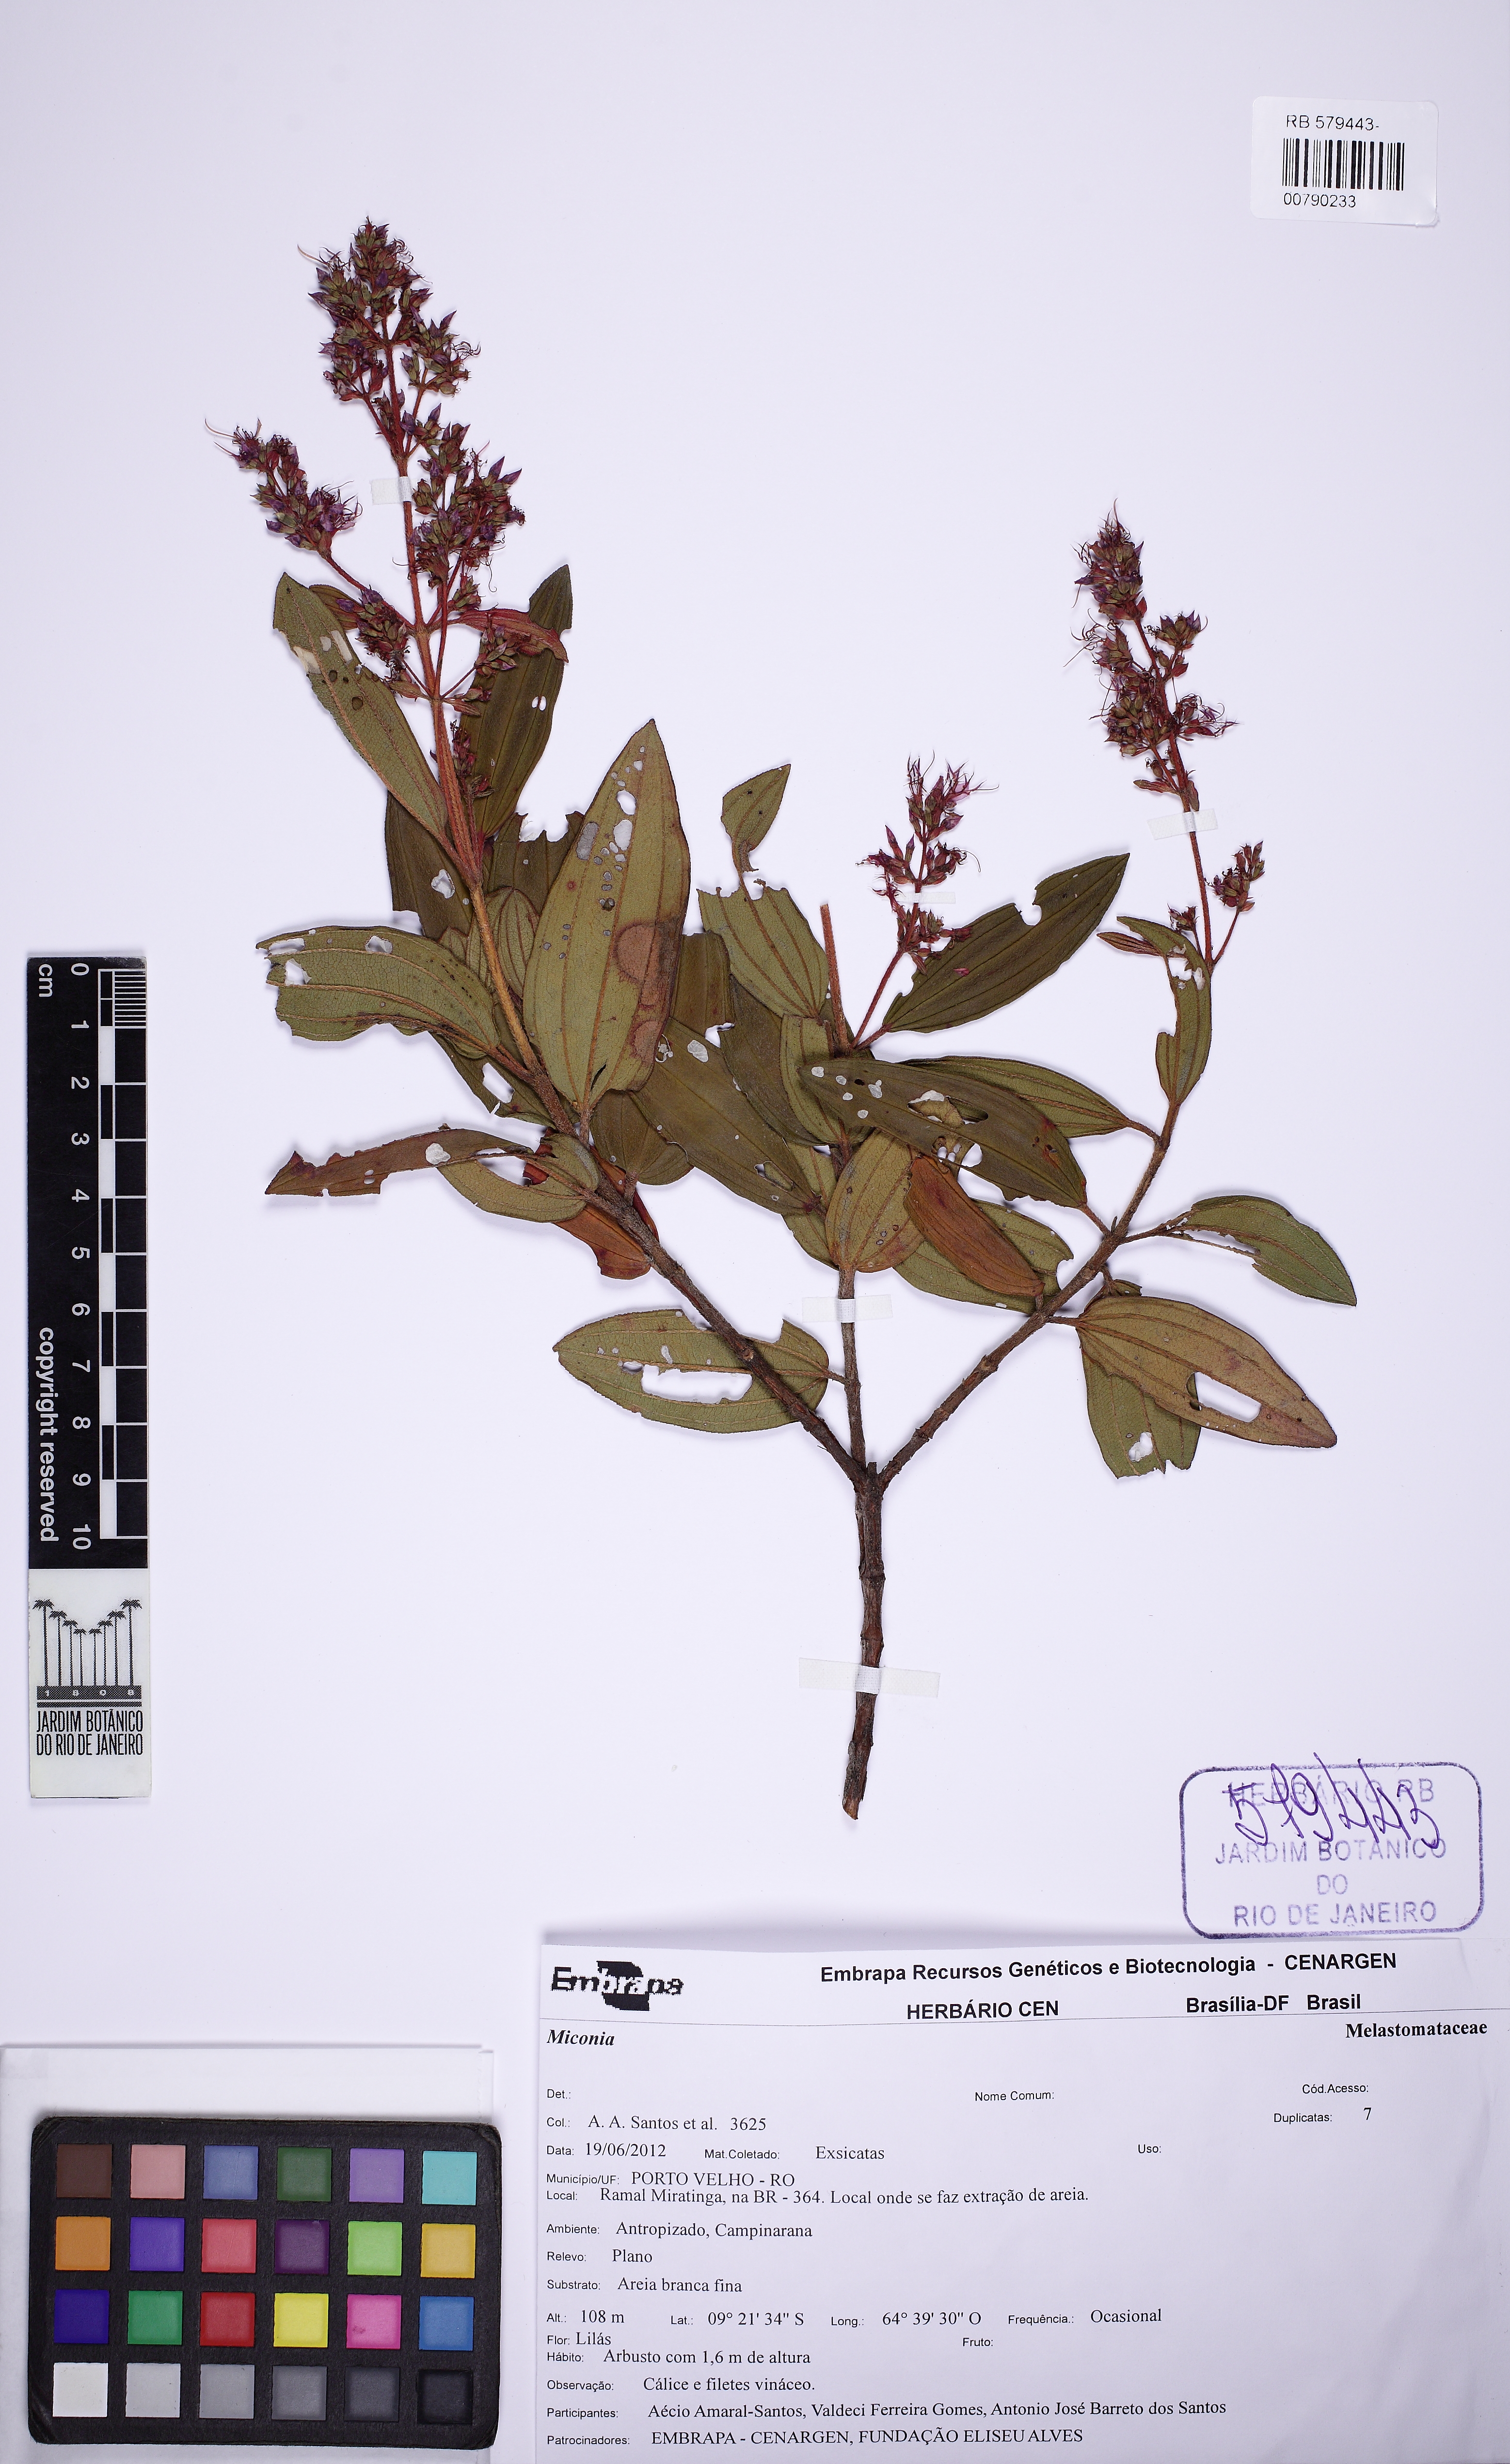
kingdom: Plantae
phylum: Tracheophyta
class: Magnoliopsida
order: Myrtales
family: Melastomataceae
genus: Sandemania
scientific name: Sandemania hoehnei
